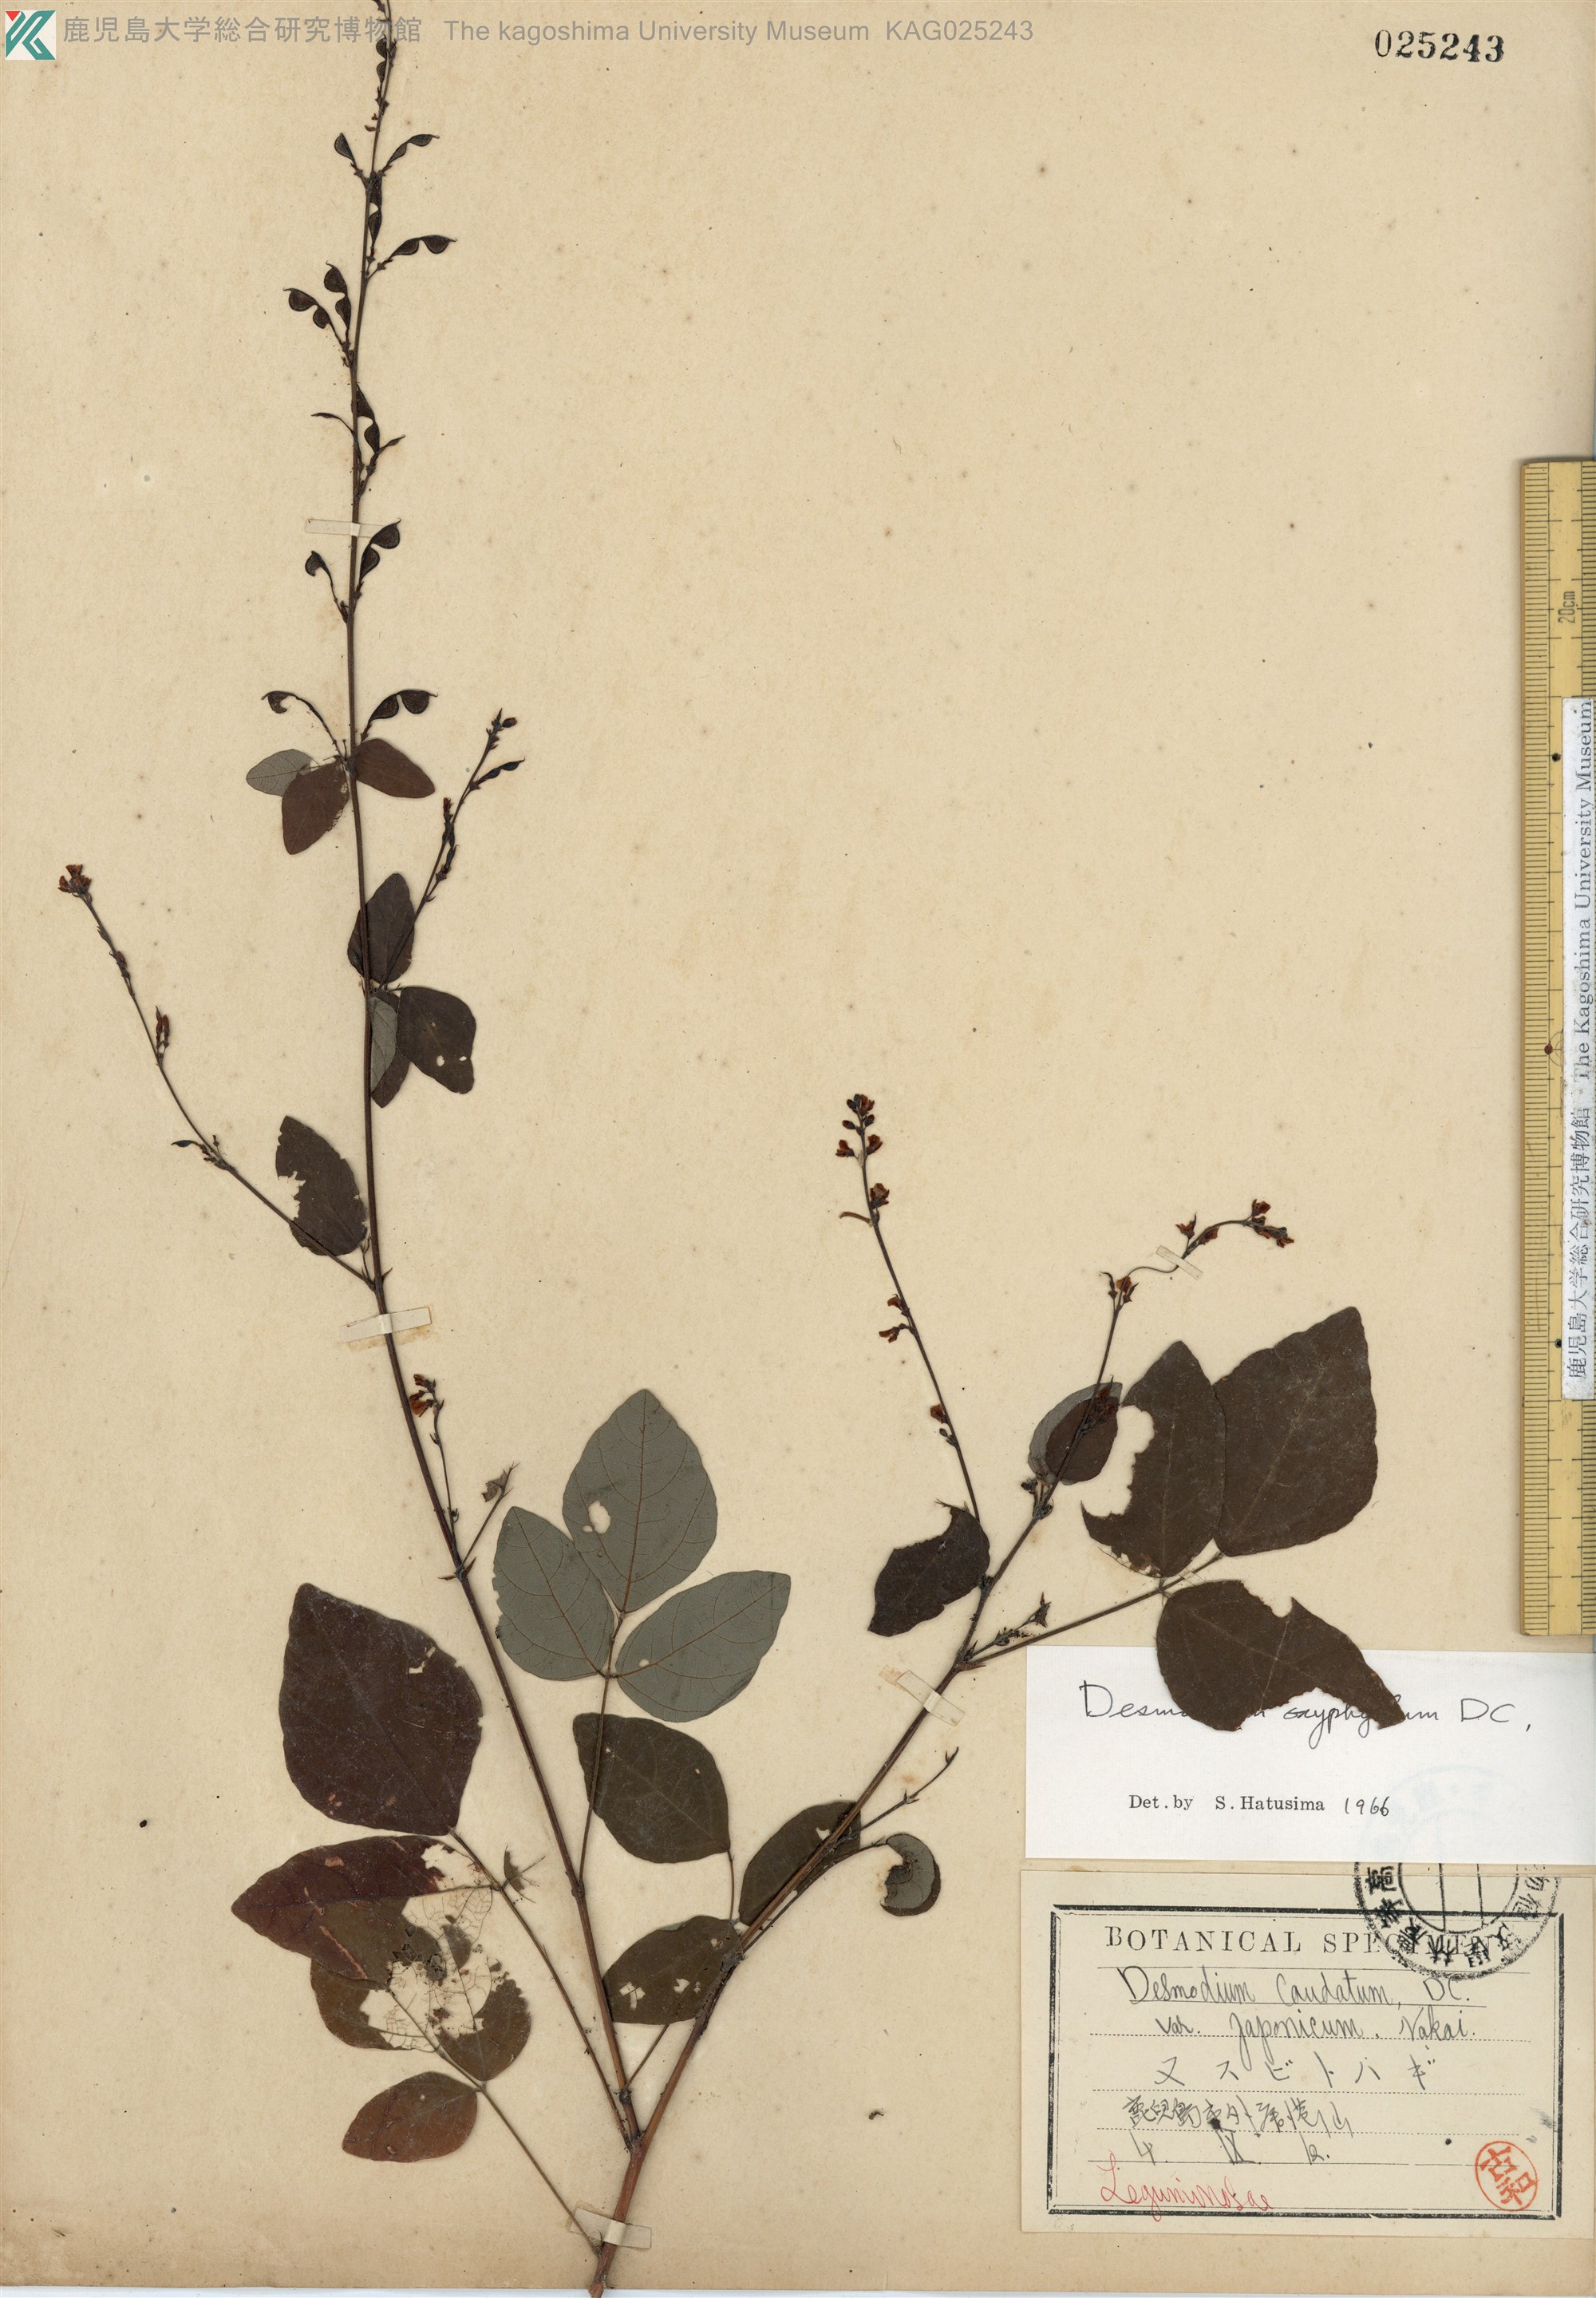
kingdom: Plantae
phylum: Tracheophyta
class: Magnoliopsida
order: Fabales
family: Fabaceae
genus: Hylodesmum
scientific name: Hylodesmum podocarpum
